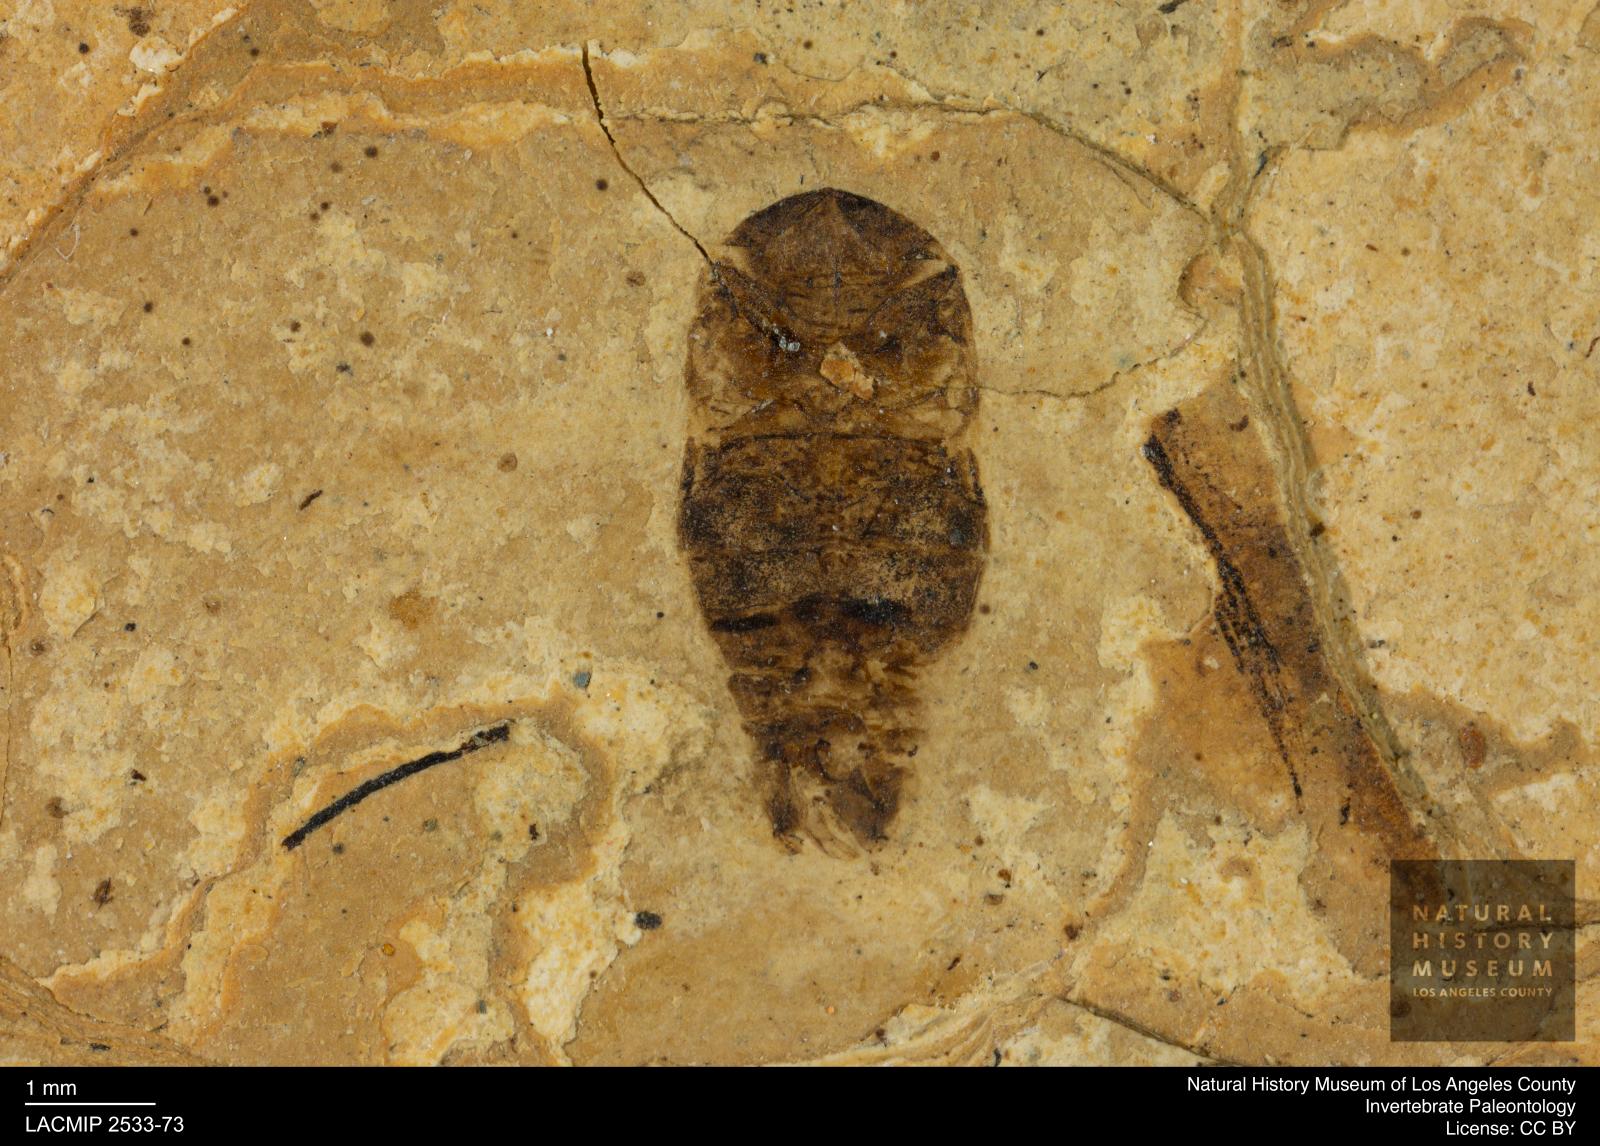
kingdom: Animalia
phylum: Arthropoda
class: Insecta
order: Hemiptera
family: Corixidae
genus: Corixa
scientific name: Corixa
